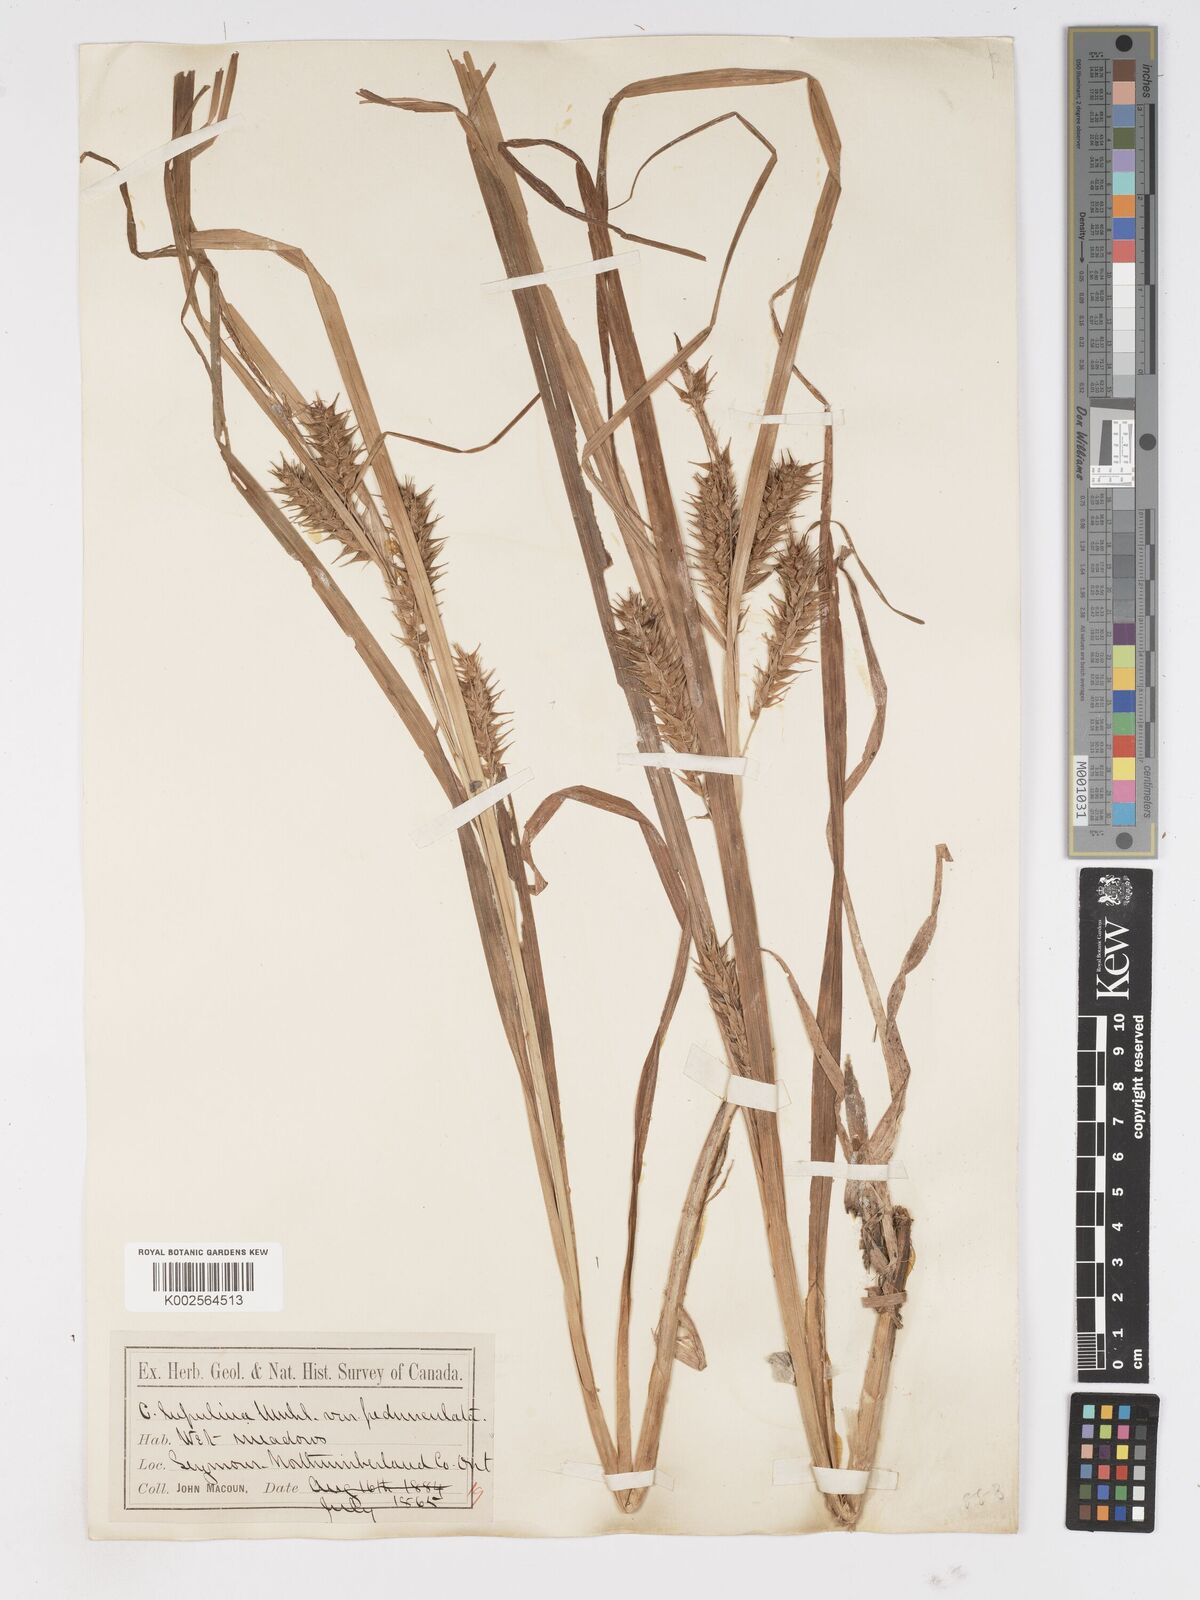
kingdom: Plantae
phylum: Tracheophyta
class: Liliopsida
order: Poales
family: Cyperaceae
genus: Carex
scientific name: Carex lupulina
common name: Hop sedge
